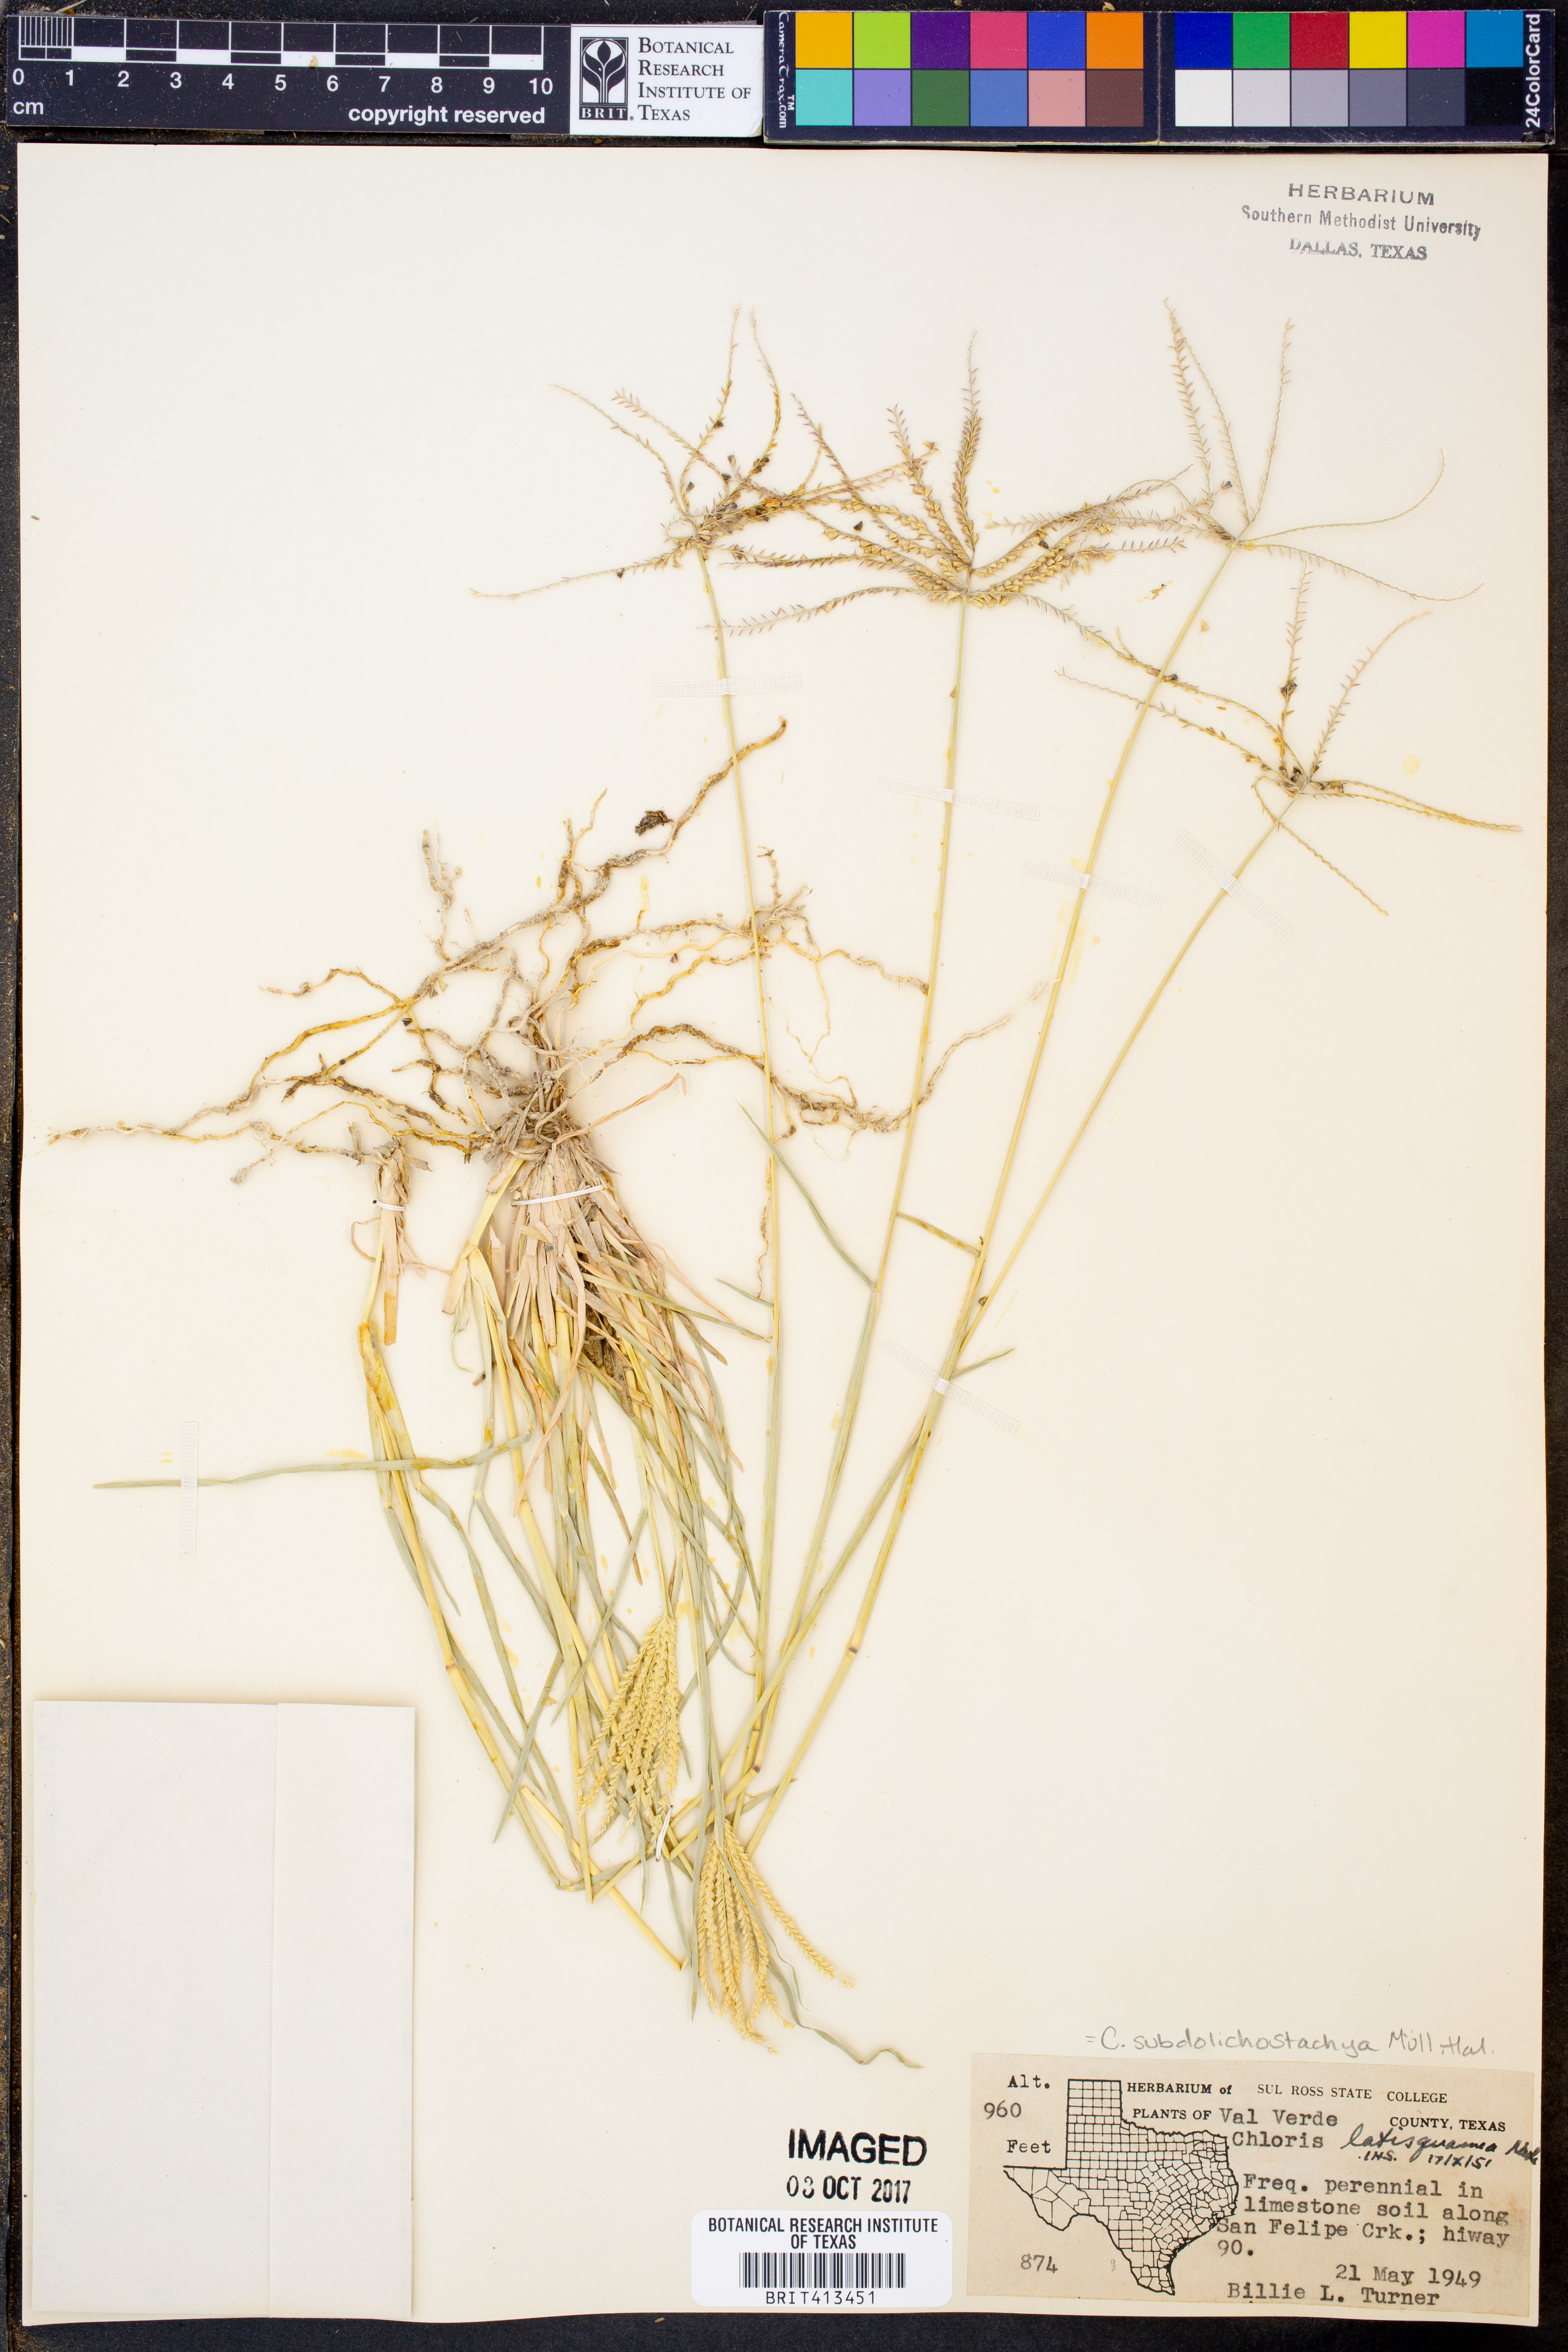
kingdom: Plantae
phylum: Tracheophyta
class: Liliopsida
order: Poales
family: Poaceae
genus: Chloris
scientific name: Chloris subdolichostachya
